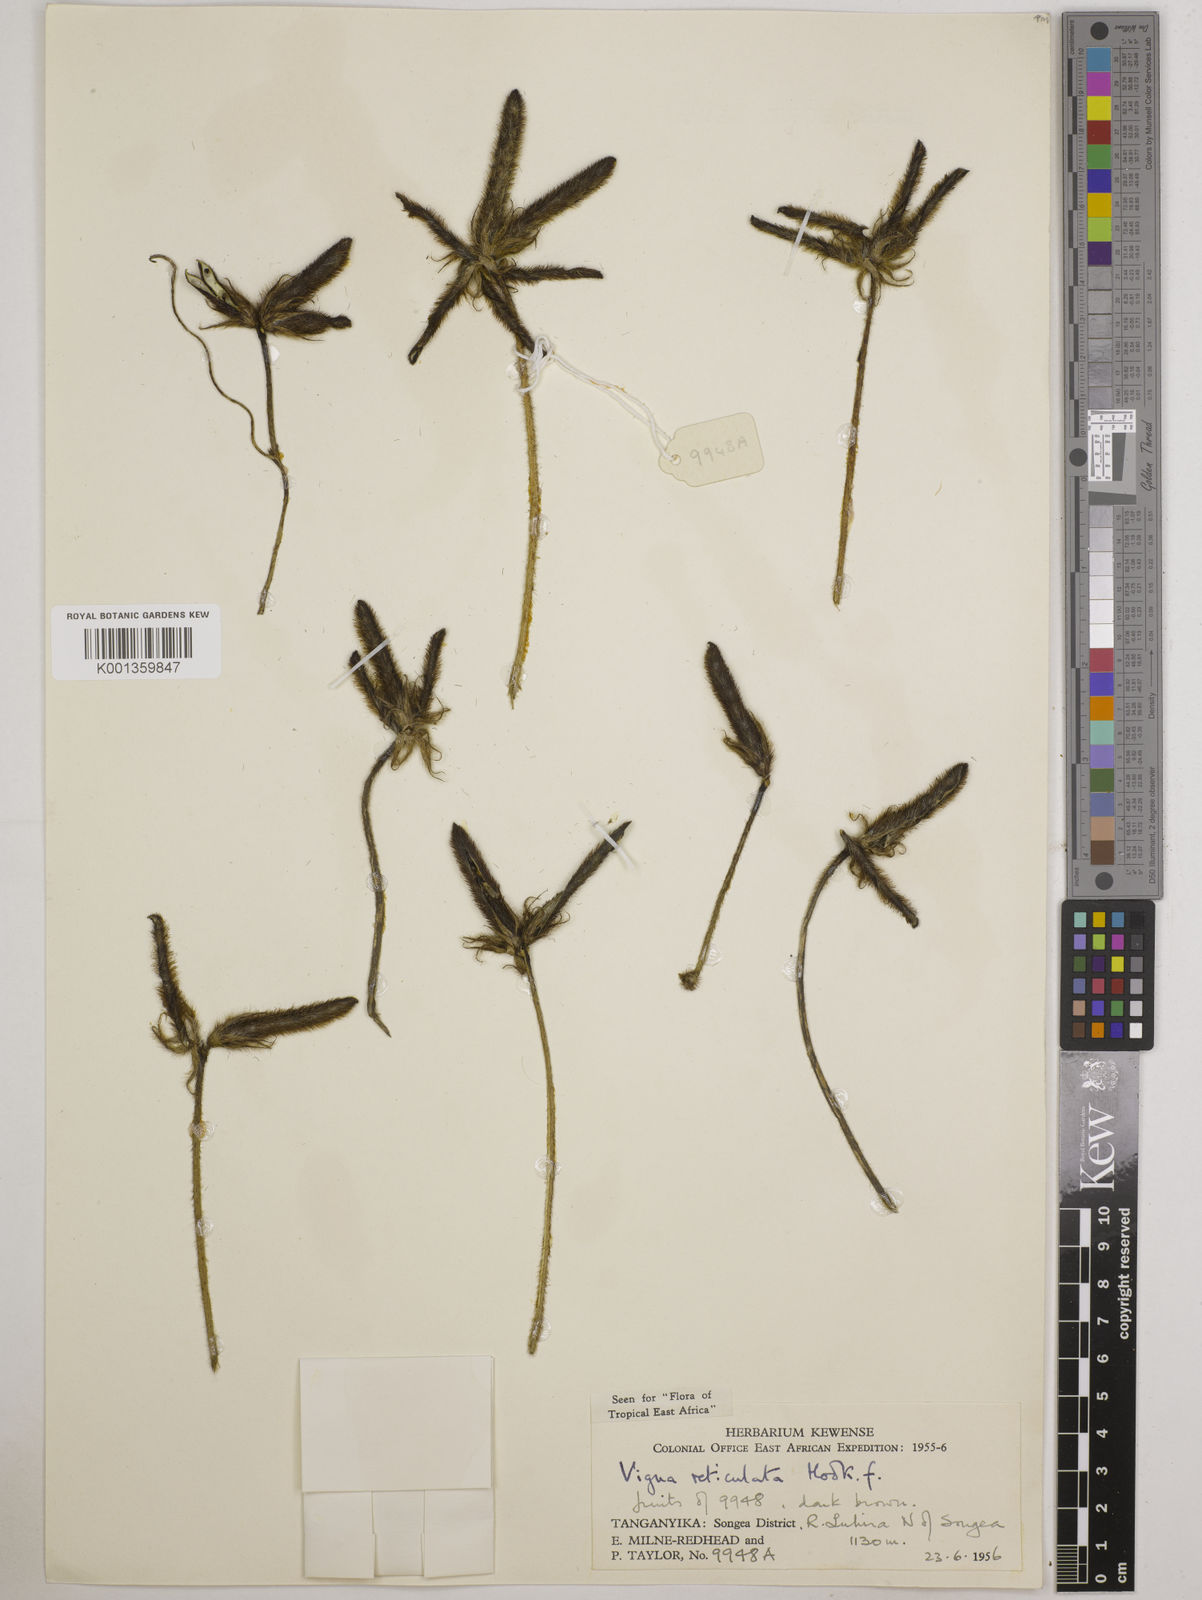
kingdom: Plantae
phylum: Tracheophyta
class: Magnoliopsida
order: Fabales
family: Fabaceae
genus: Vigna
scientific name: Vigna reticulata
